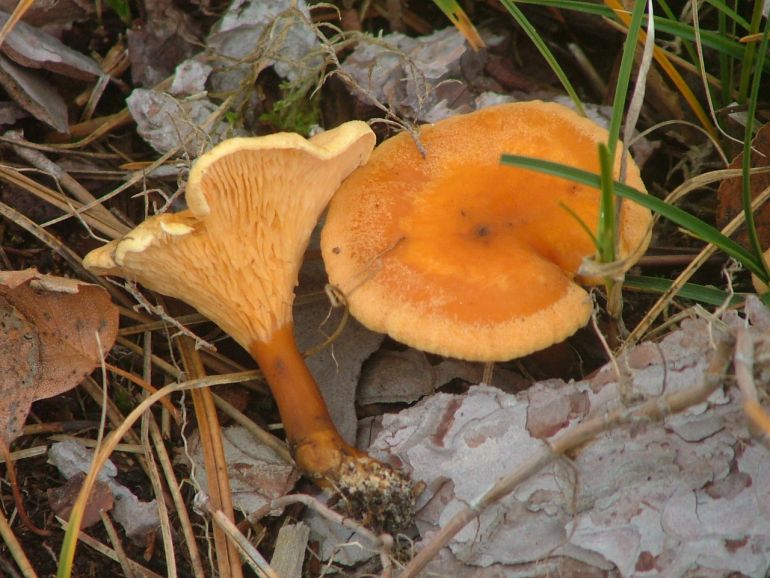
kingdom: Fungi
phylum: Basidiomycota
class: Agaricomycetes
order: Boletales
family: Hygrophoropsidaceae
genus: Hygrophoropsis
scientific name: Hygrophoropsis aurantiaca
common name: almindelig orangekantarel
